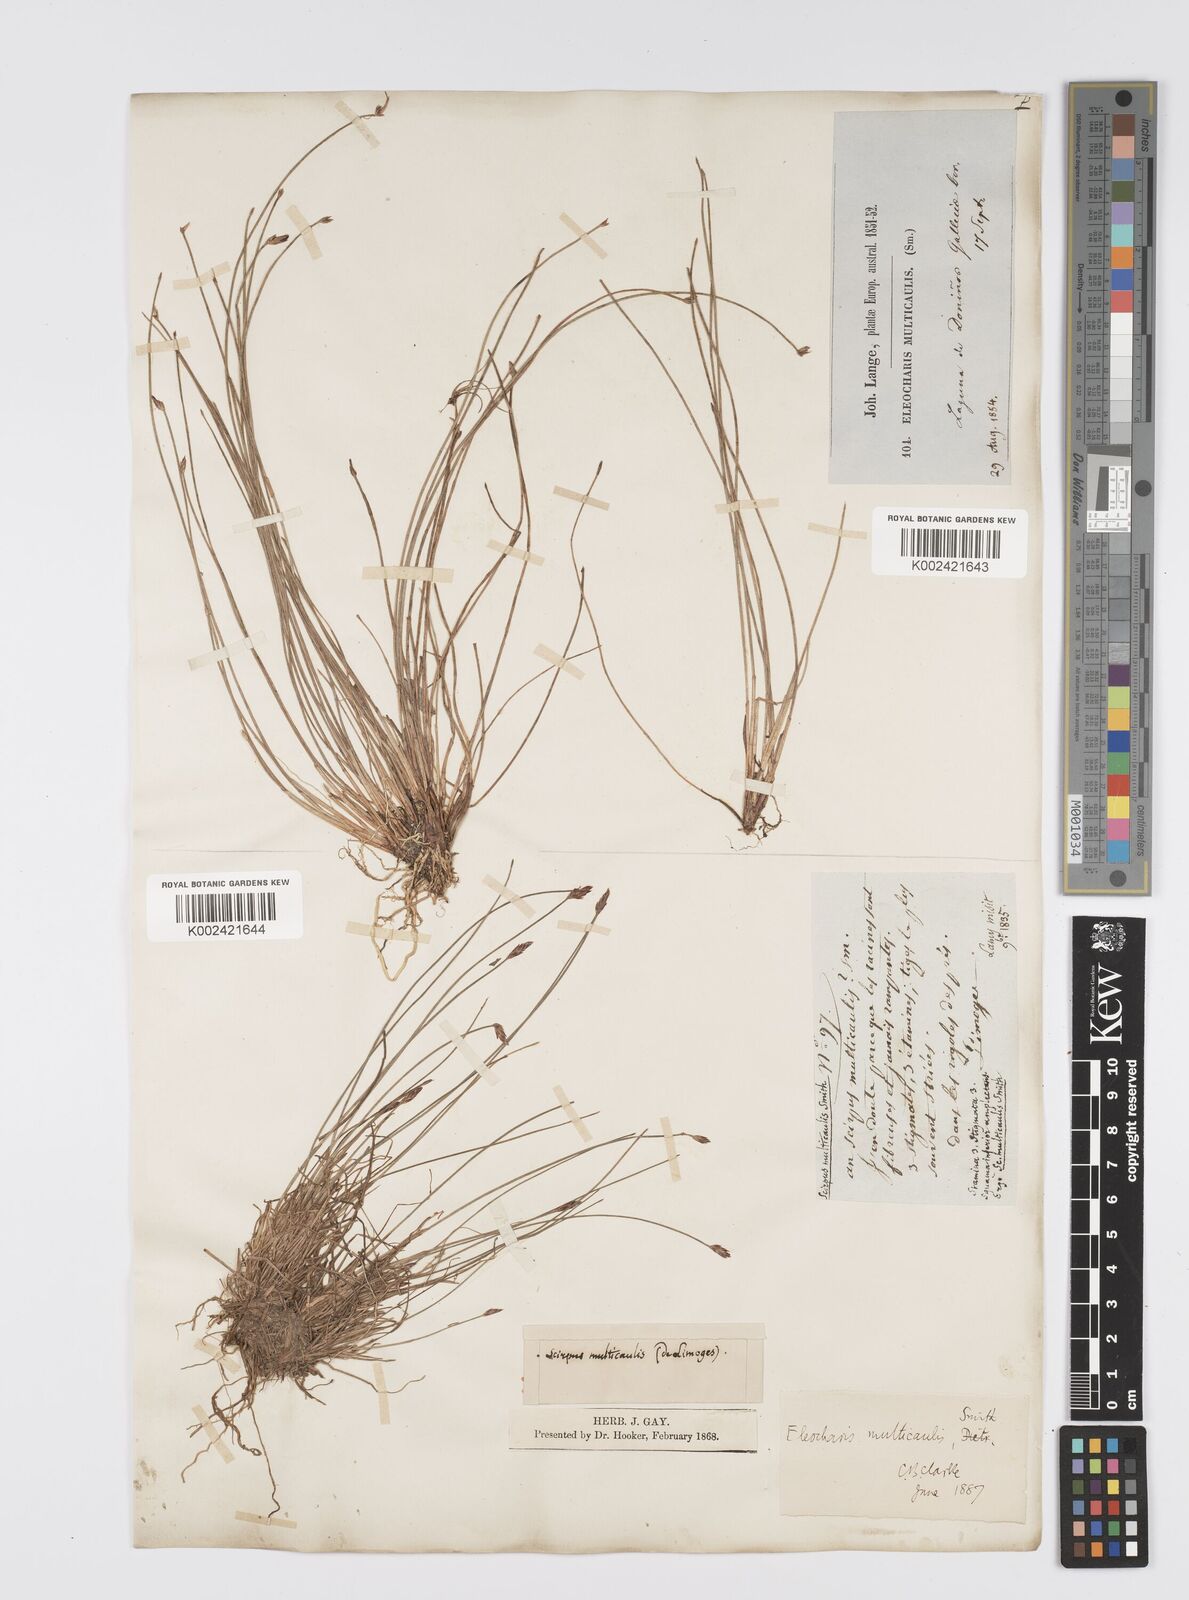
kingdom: Plantae
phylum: Tracheophyta
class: Liliopsida
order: Poales
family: Cyperaceae
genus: Eleocharis
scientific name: Eleocharis multicaulis
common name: Many-stalked spike-rush
